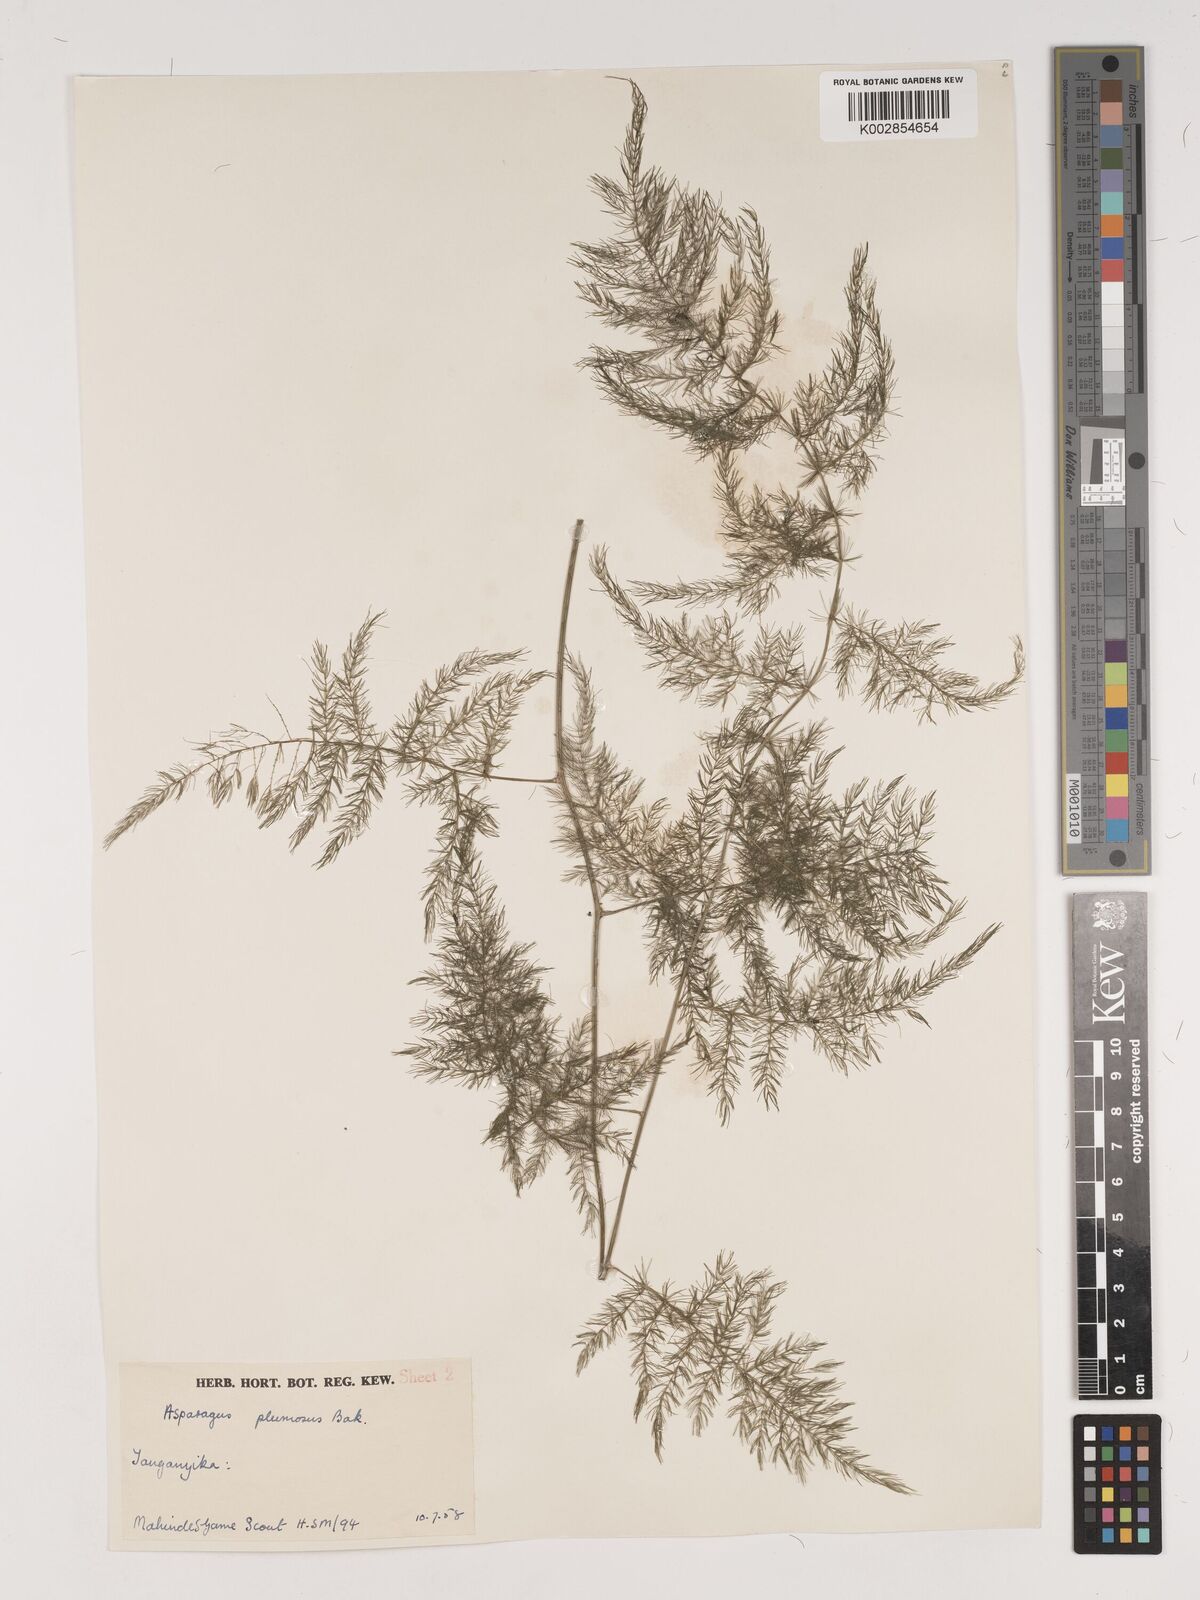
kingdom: Plantae
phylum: Tracheophyta
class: Liliopsida
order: Asparagales
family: Asparagaceae
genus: Asparagus
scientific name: Asparagus setaceus
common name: Common asparagus fern
